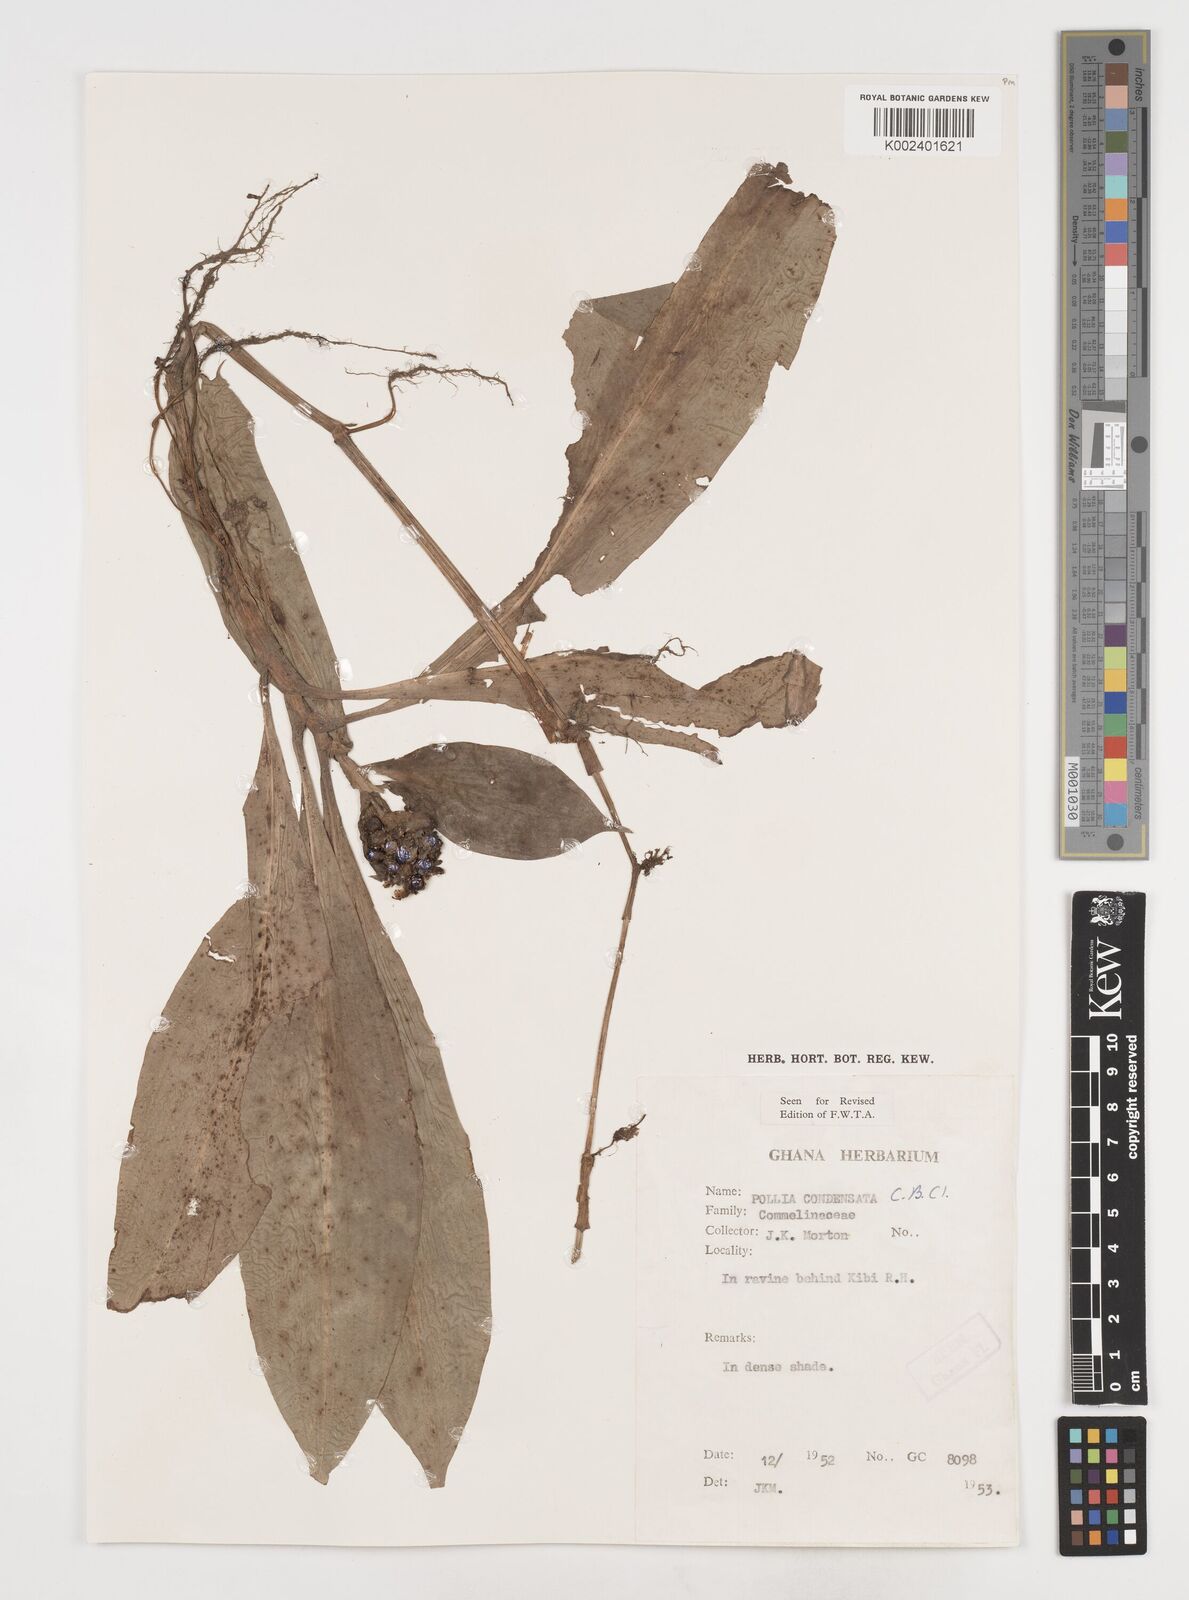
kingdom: Plantae
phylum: Tracheophyta
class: Liliopsida
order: Commelinales
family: Commelinaceae
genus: Pollia
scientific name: Pollia condensata
